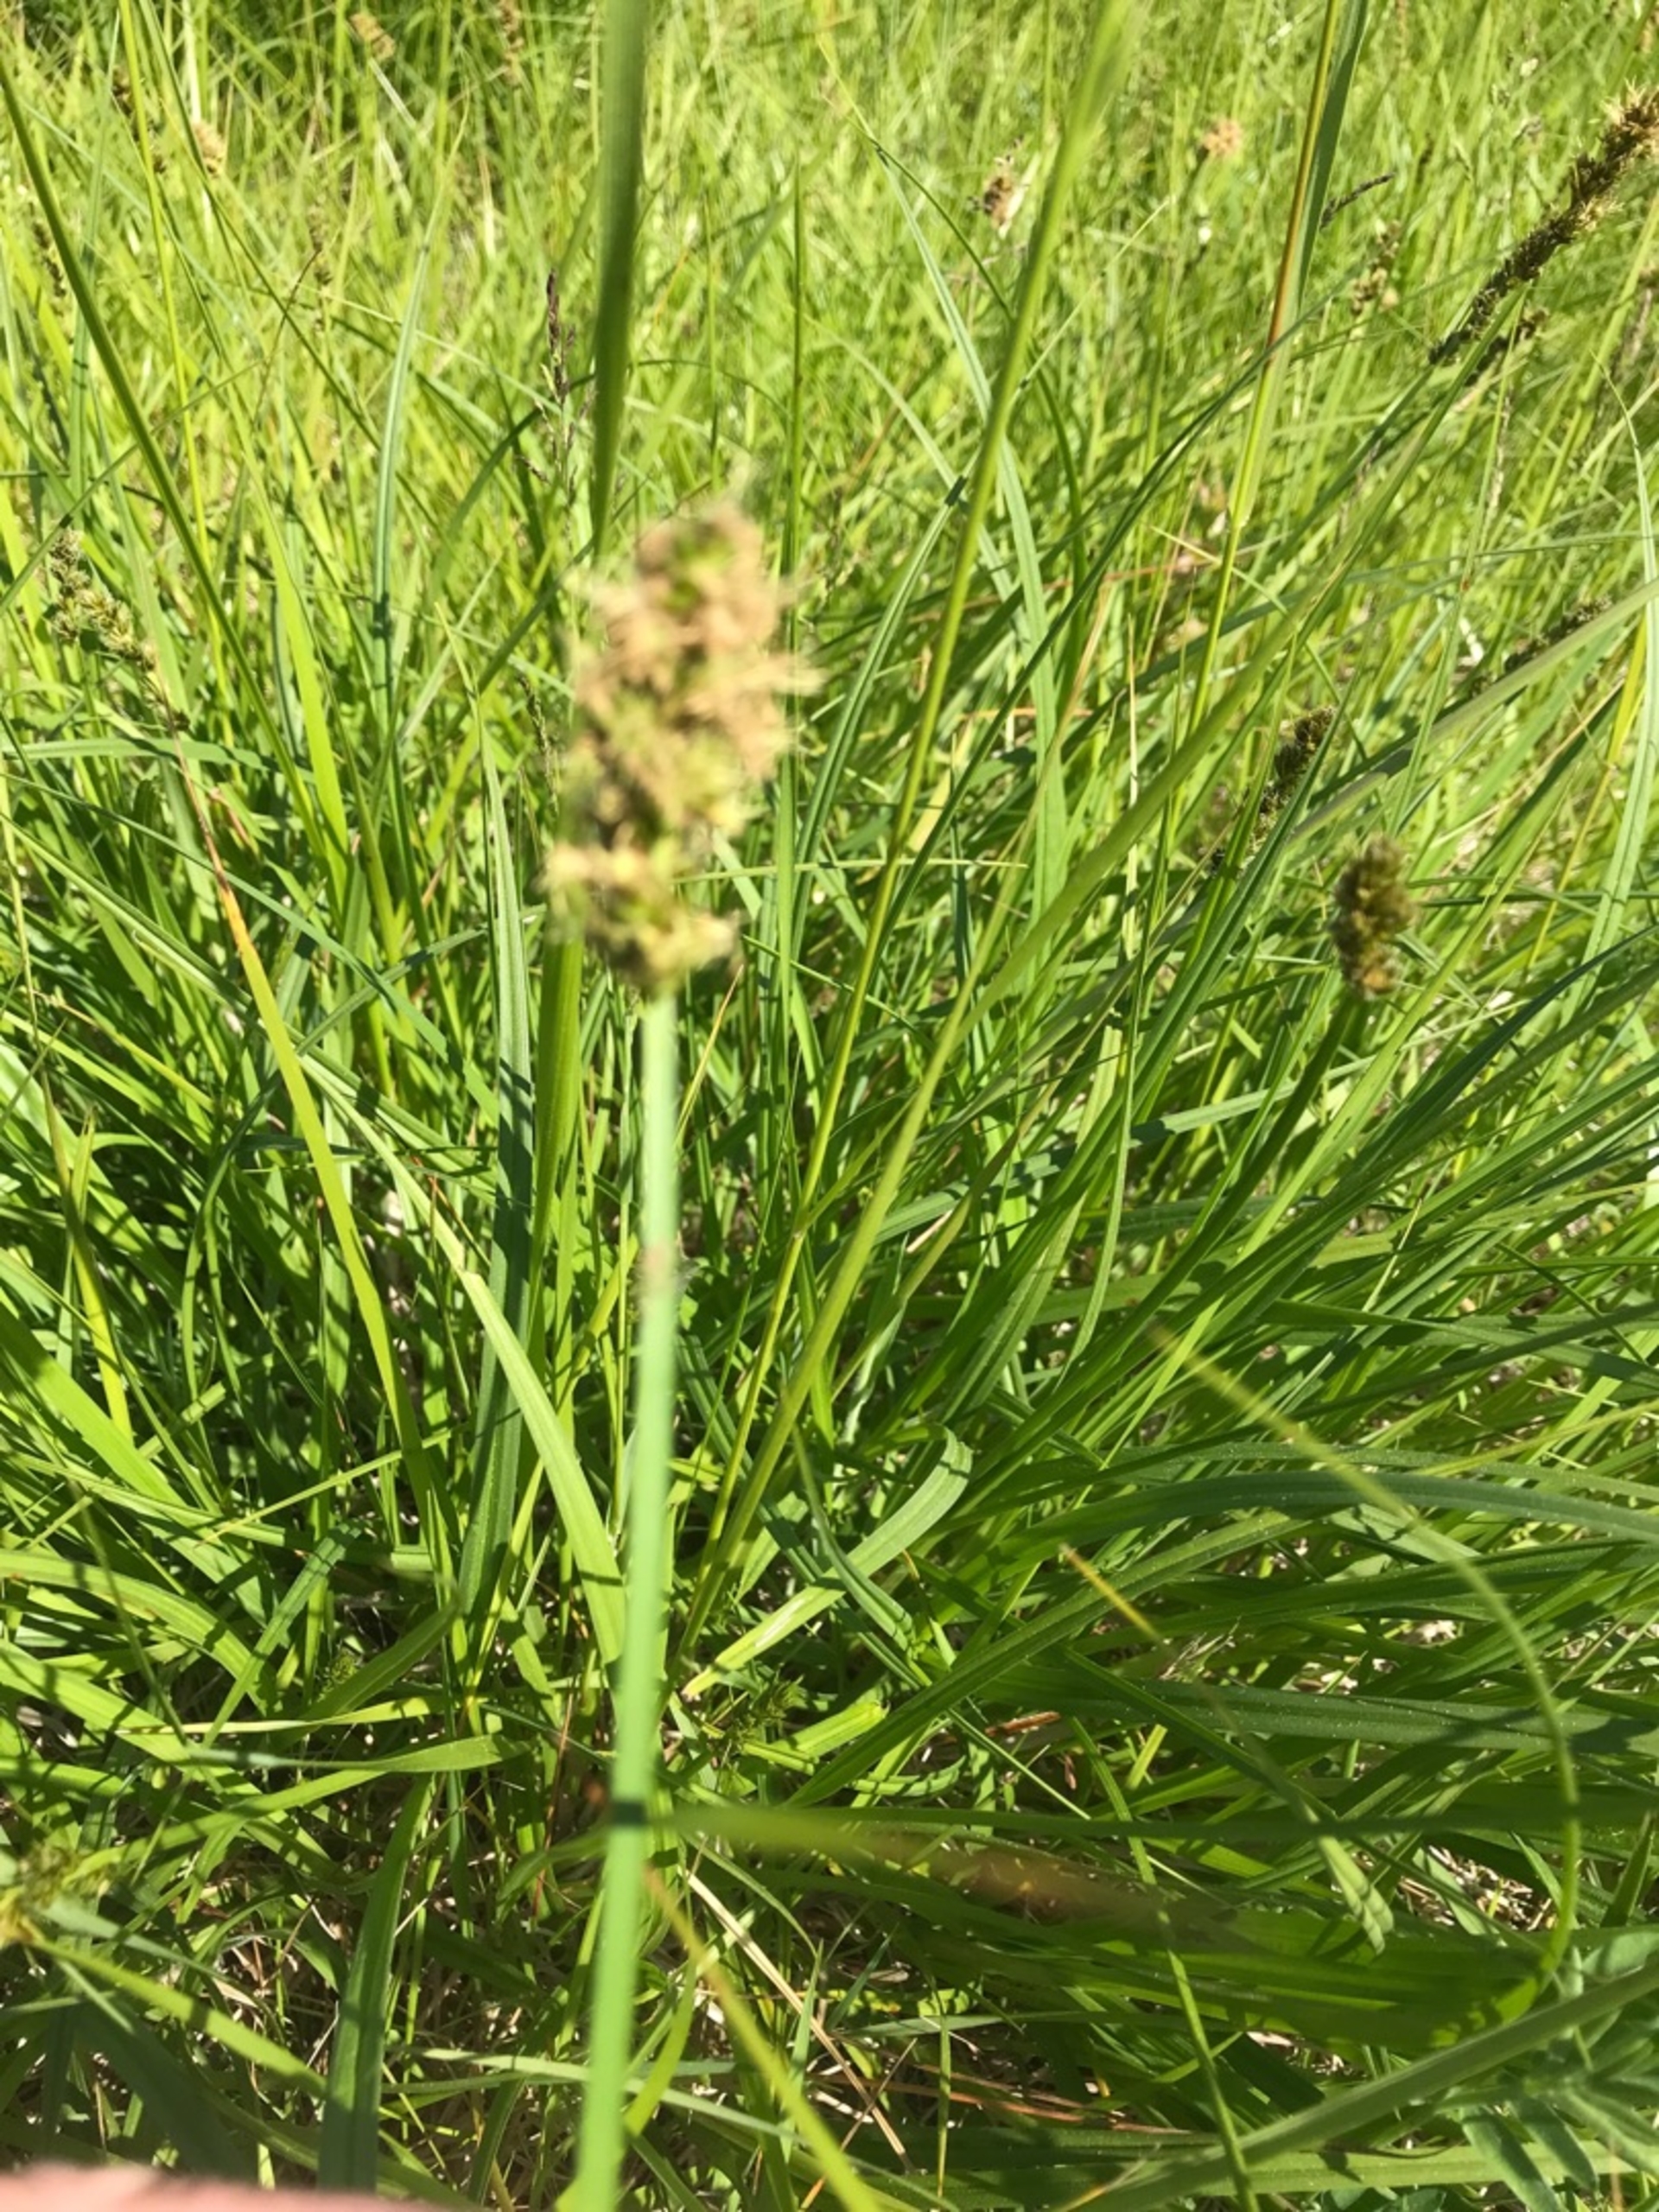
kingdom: Plantae
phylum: Tracheophyta
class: Liliopsida
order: Poales
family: Cyperaceae
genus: Carex
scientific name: Carex otrubae
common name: Sylt-star
